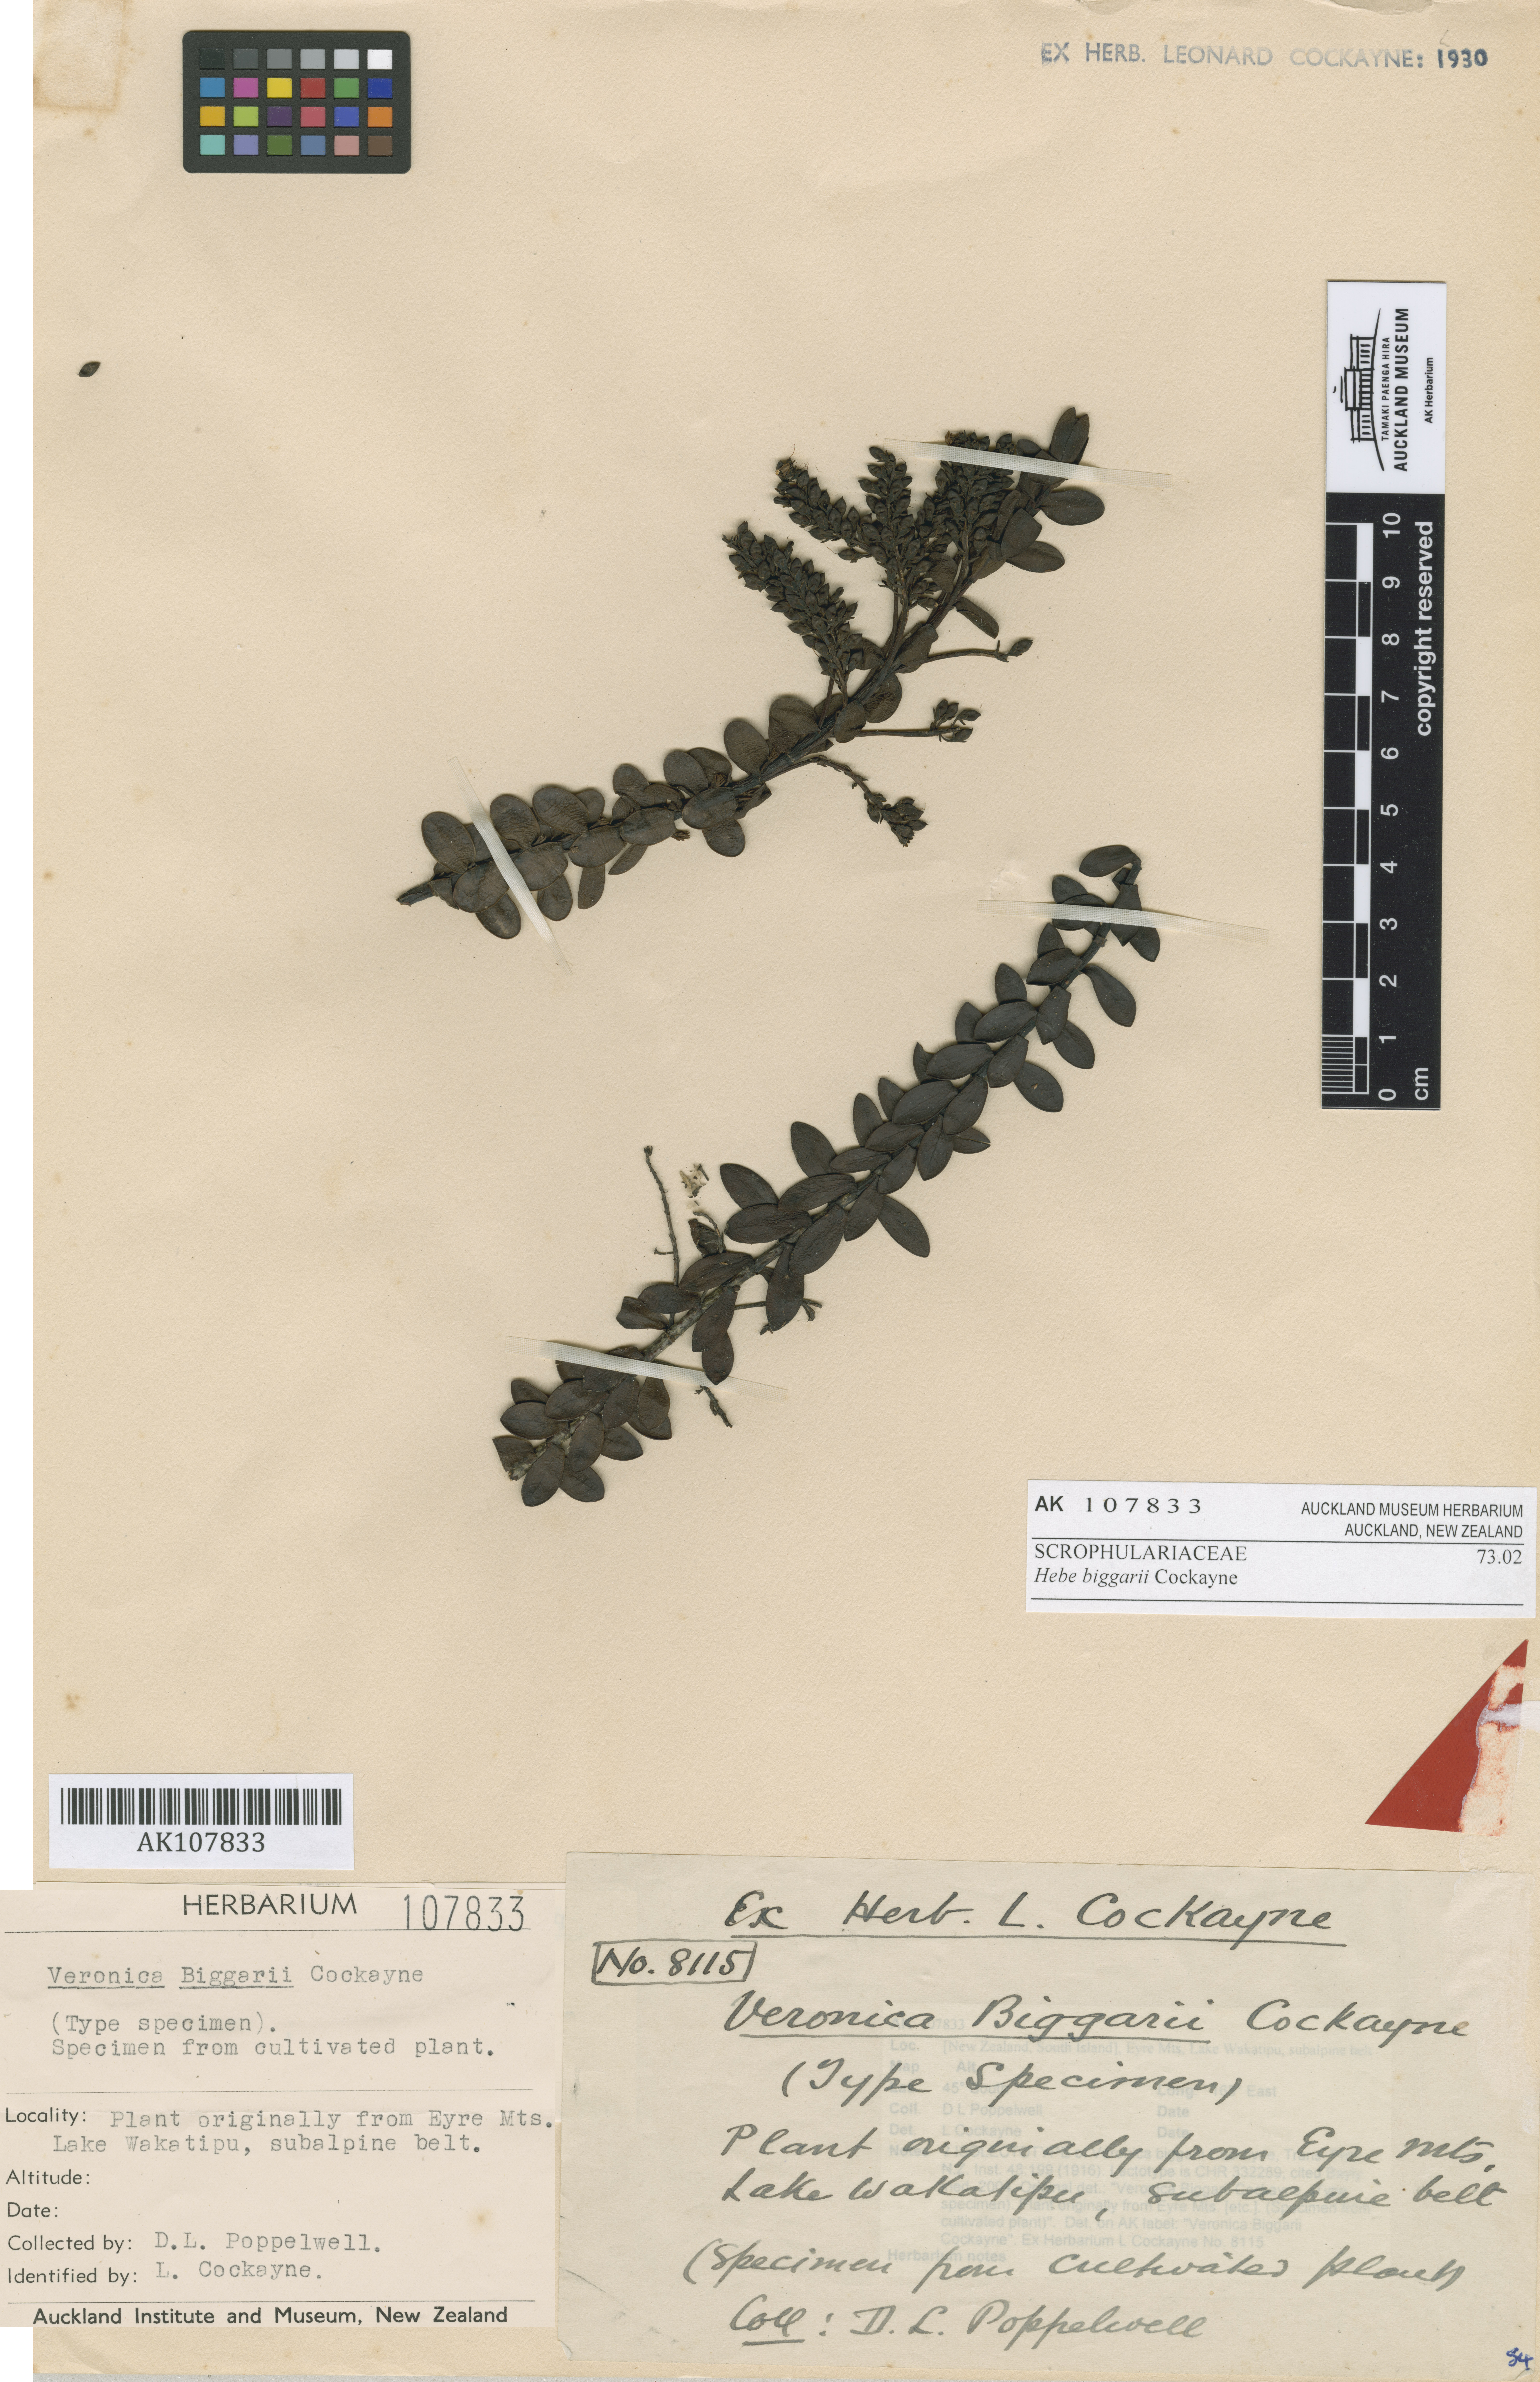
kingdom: Plantae
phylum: Tracheophyta
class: Magnoliopsida
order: Lamiales
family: Plantaginaceae
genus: Veronica
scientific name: Veronica biggarii
